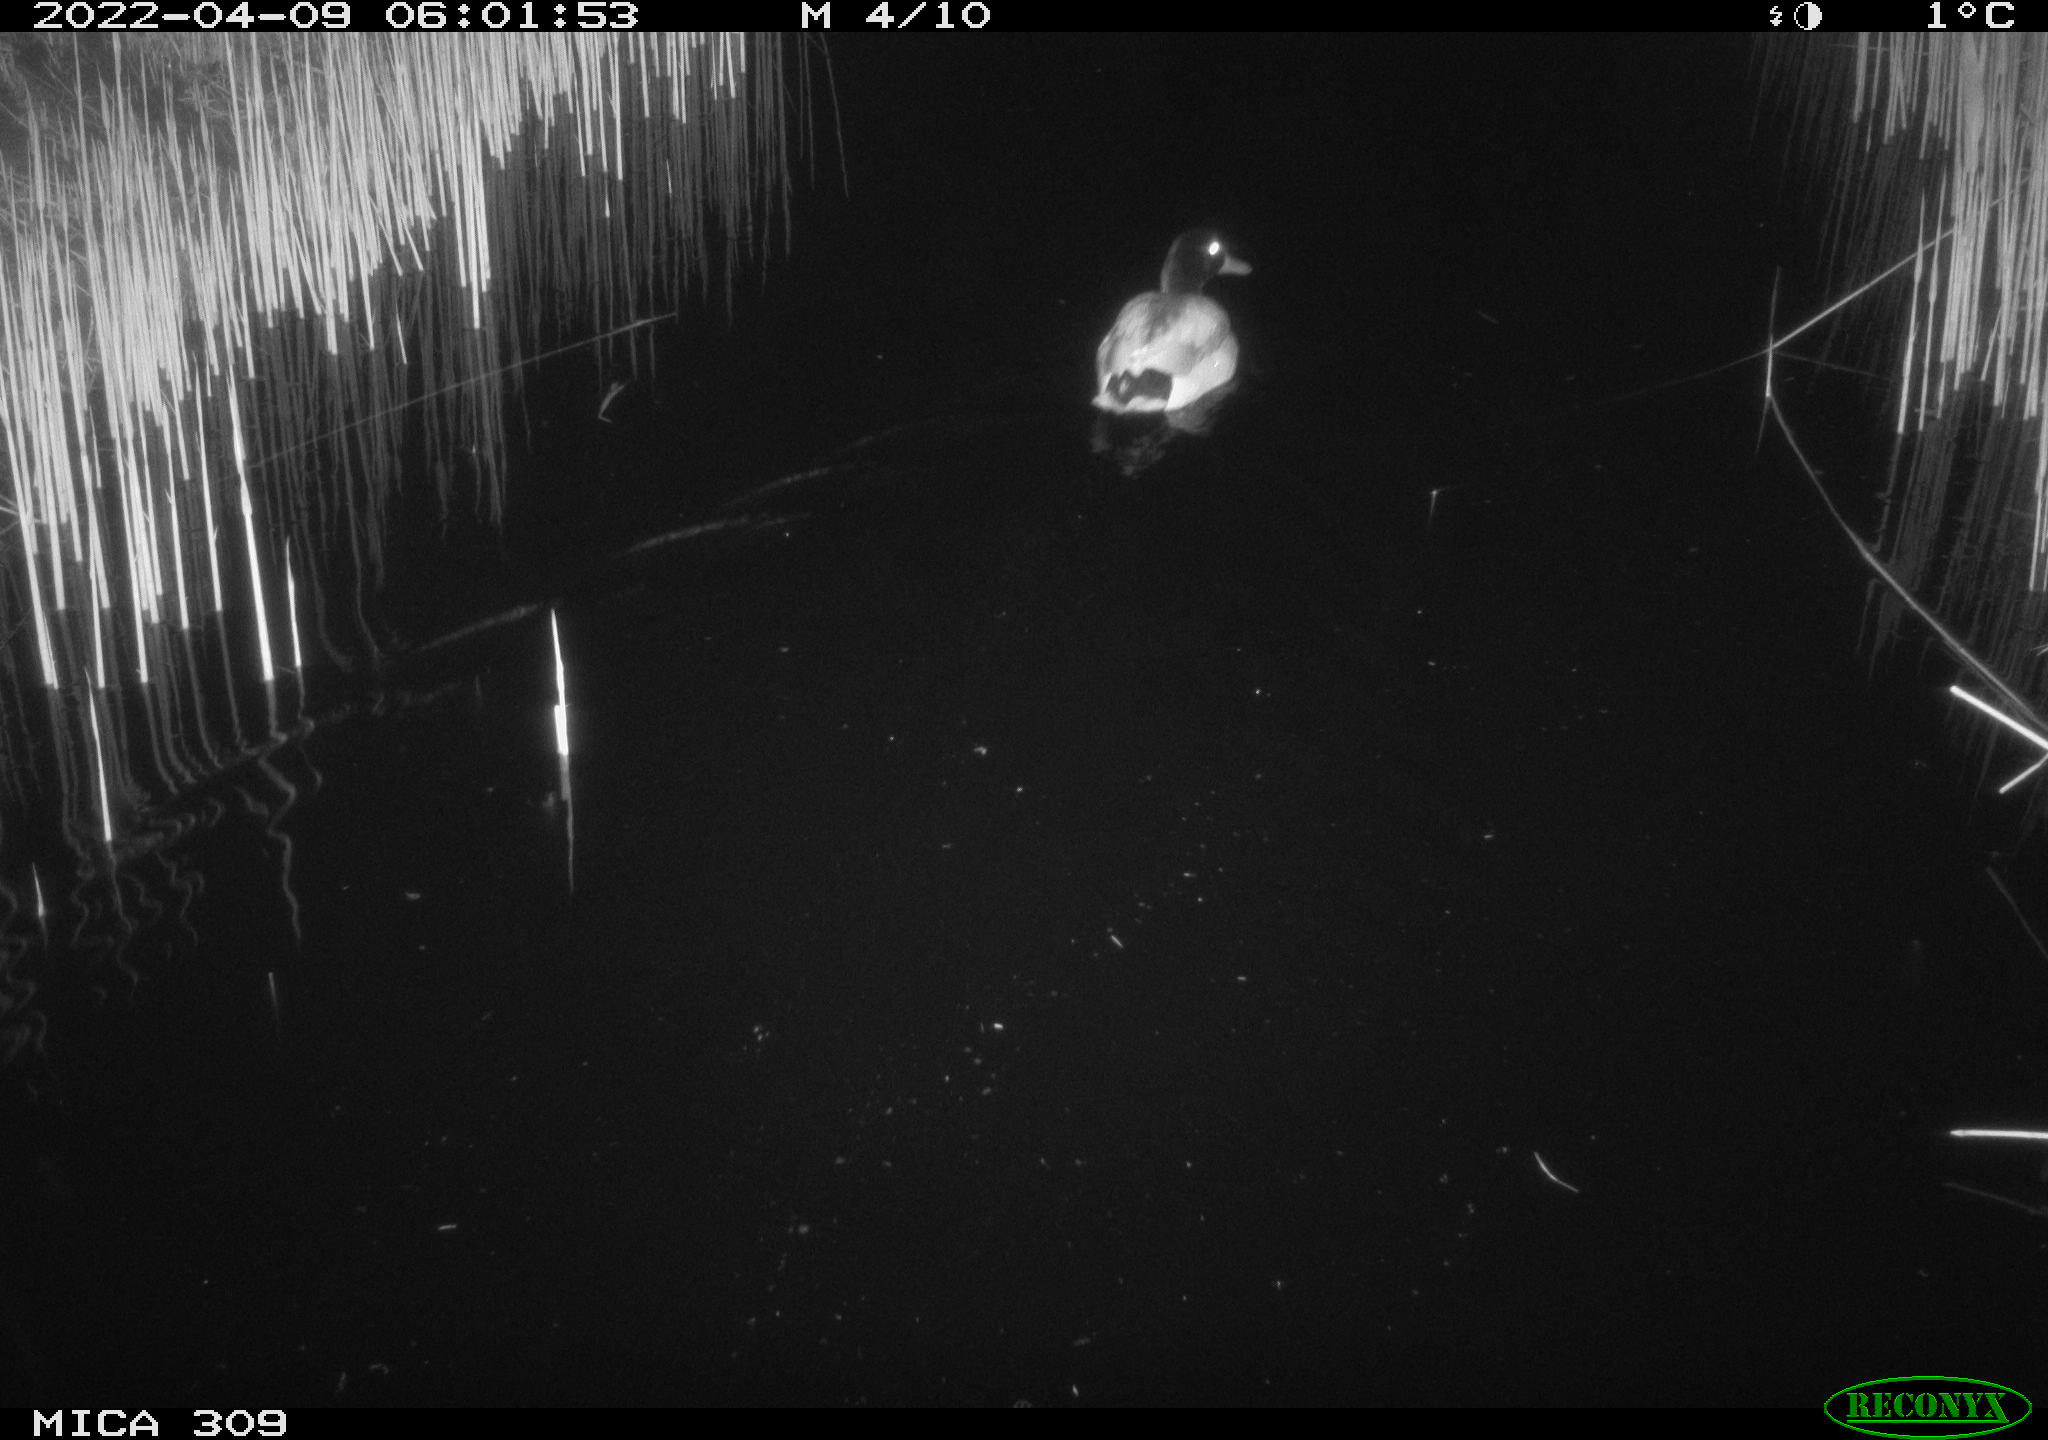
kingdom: Animalia
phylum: Chordata
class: Aves
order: Anseriformes
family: Anatidae
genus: Anas
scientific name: Anas platyrhynchos
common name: Mallard
